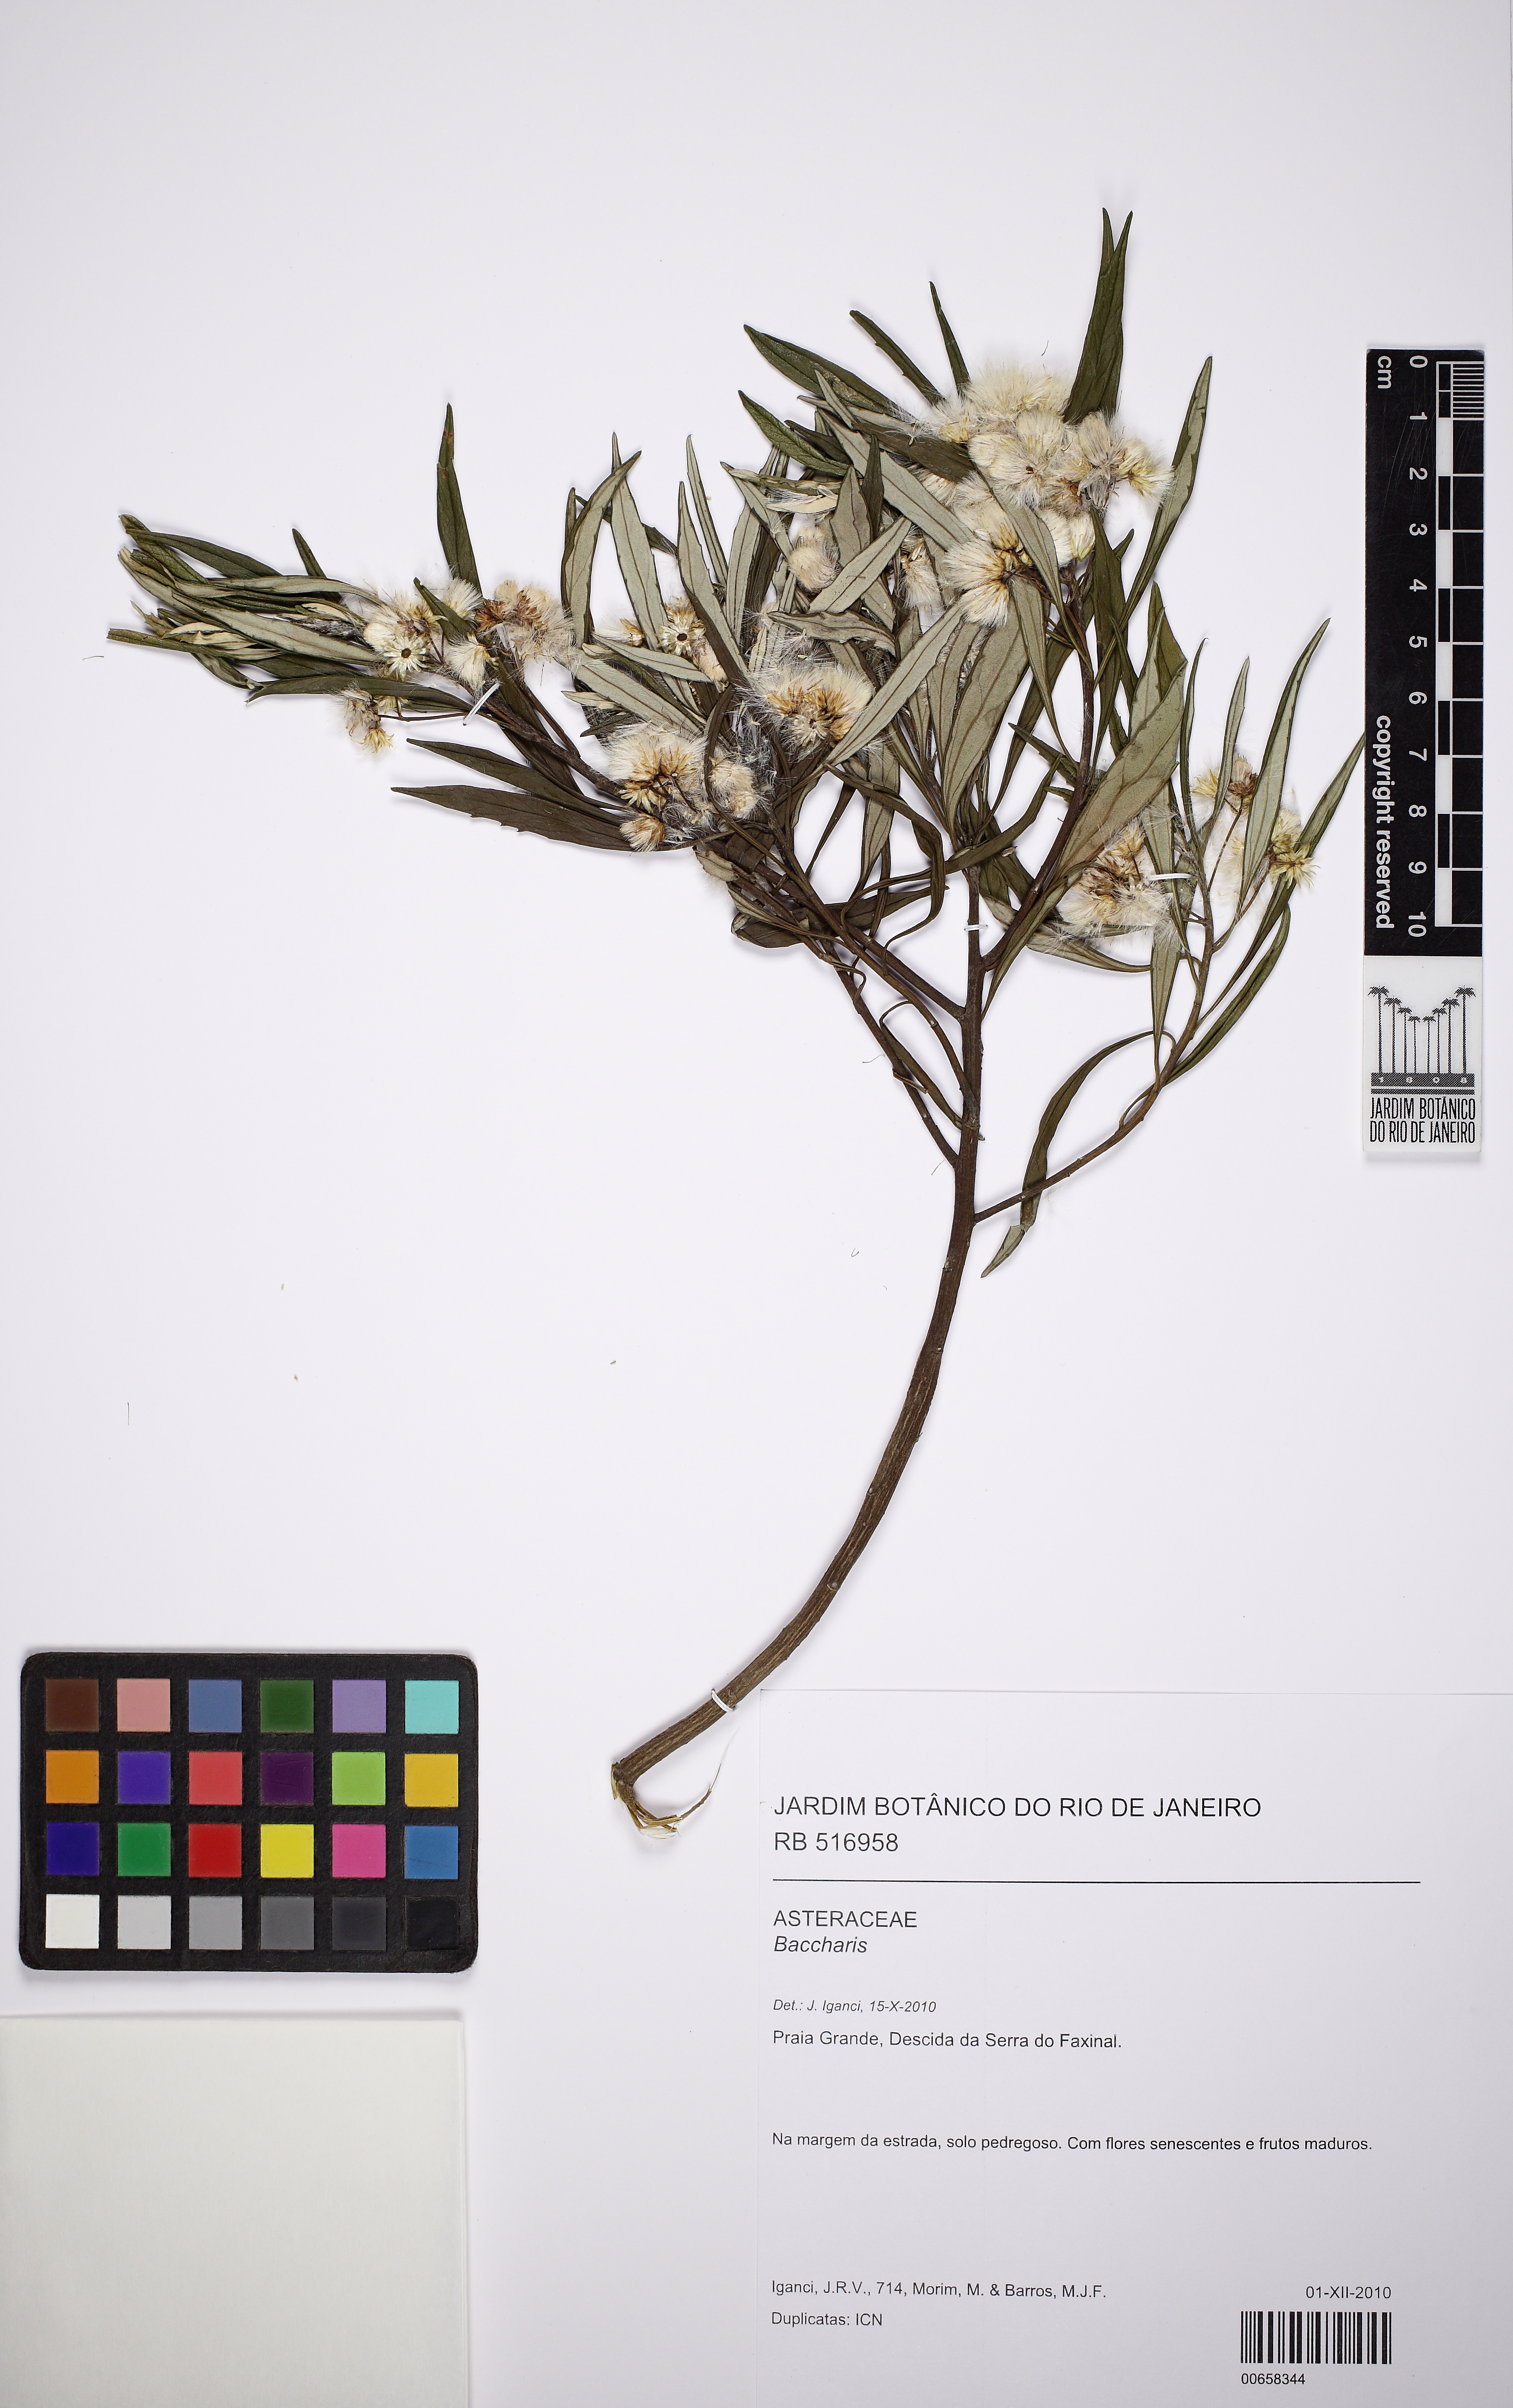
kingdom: Plantae
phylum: Tracheophyta
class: Magnoliopsida
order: Asterales
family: Asteraceae
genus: Baccharis
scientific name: Baccharis montana
